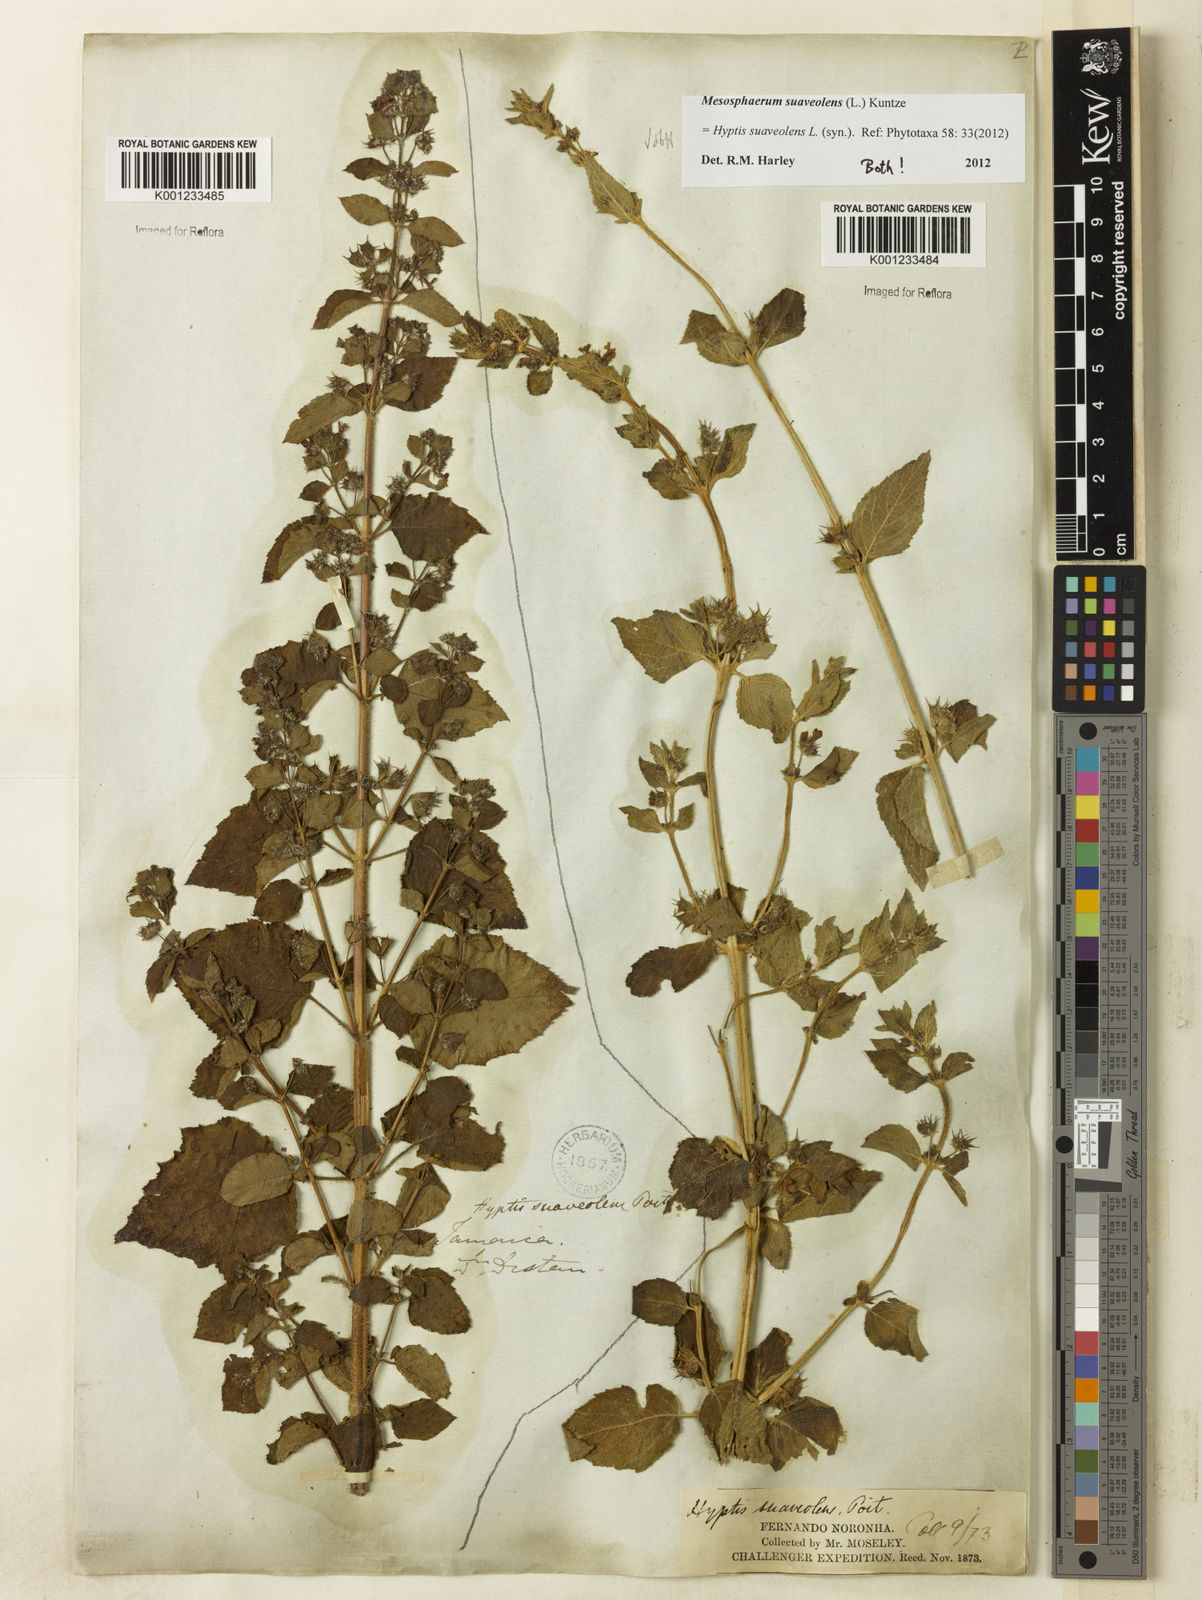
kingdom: Plantae
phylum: Tracheophyta
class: Magnoliopsida
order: Lamiales
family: Lamiaceae
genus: Mesosphaerum
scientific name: Mesosphaerum suaveolens
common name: Pignut
